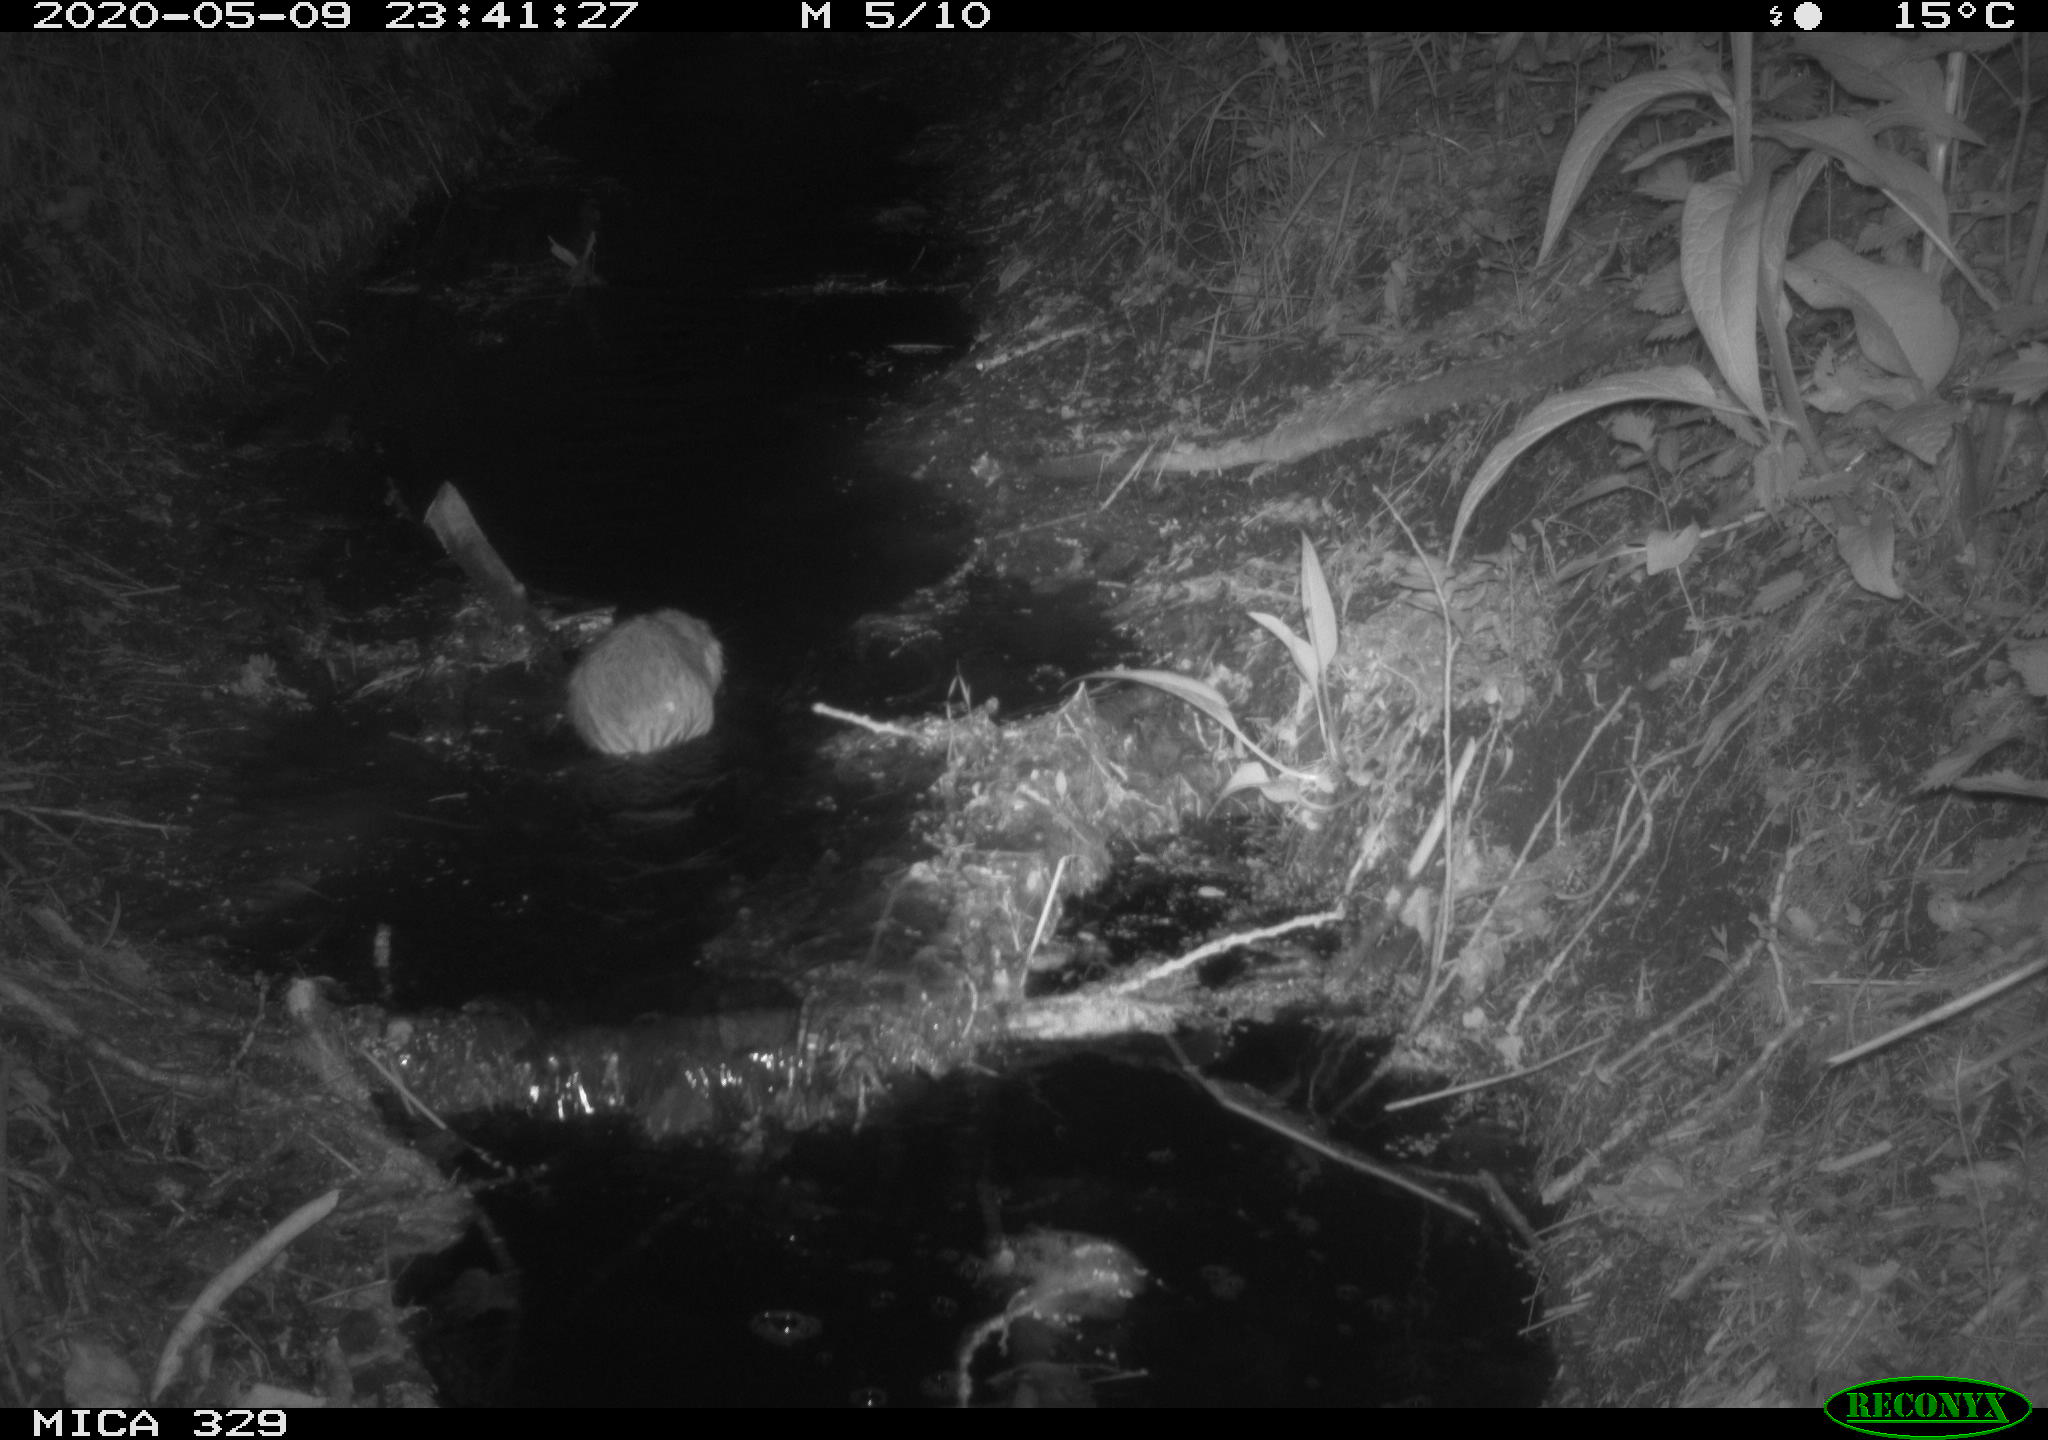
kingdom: Animalia
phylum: Chordata
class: Mammalia
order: Rodentia
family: Cricetidae
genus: Ondatra
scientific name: Ondatra zibethicus
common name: Muskrat
